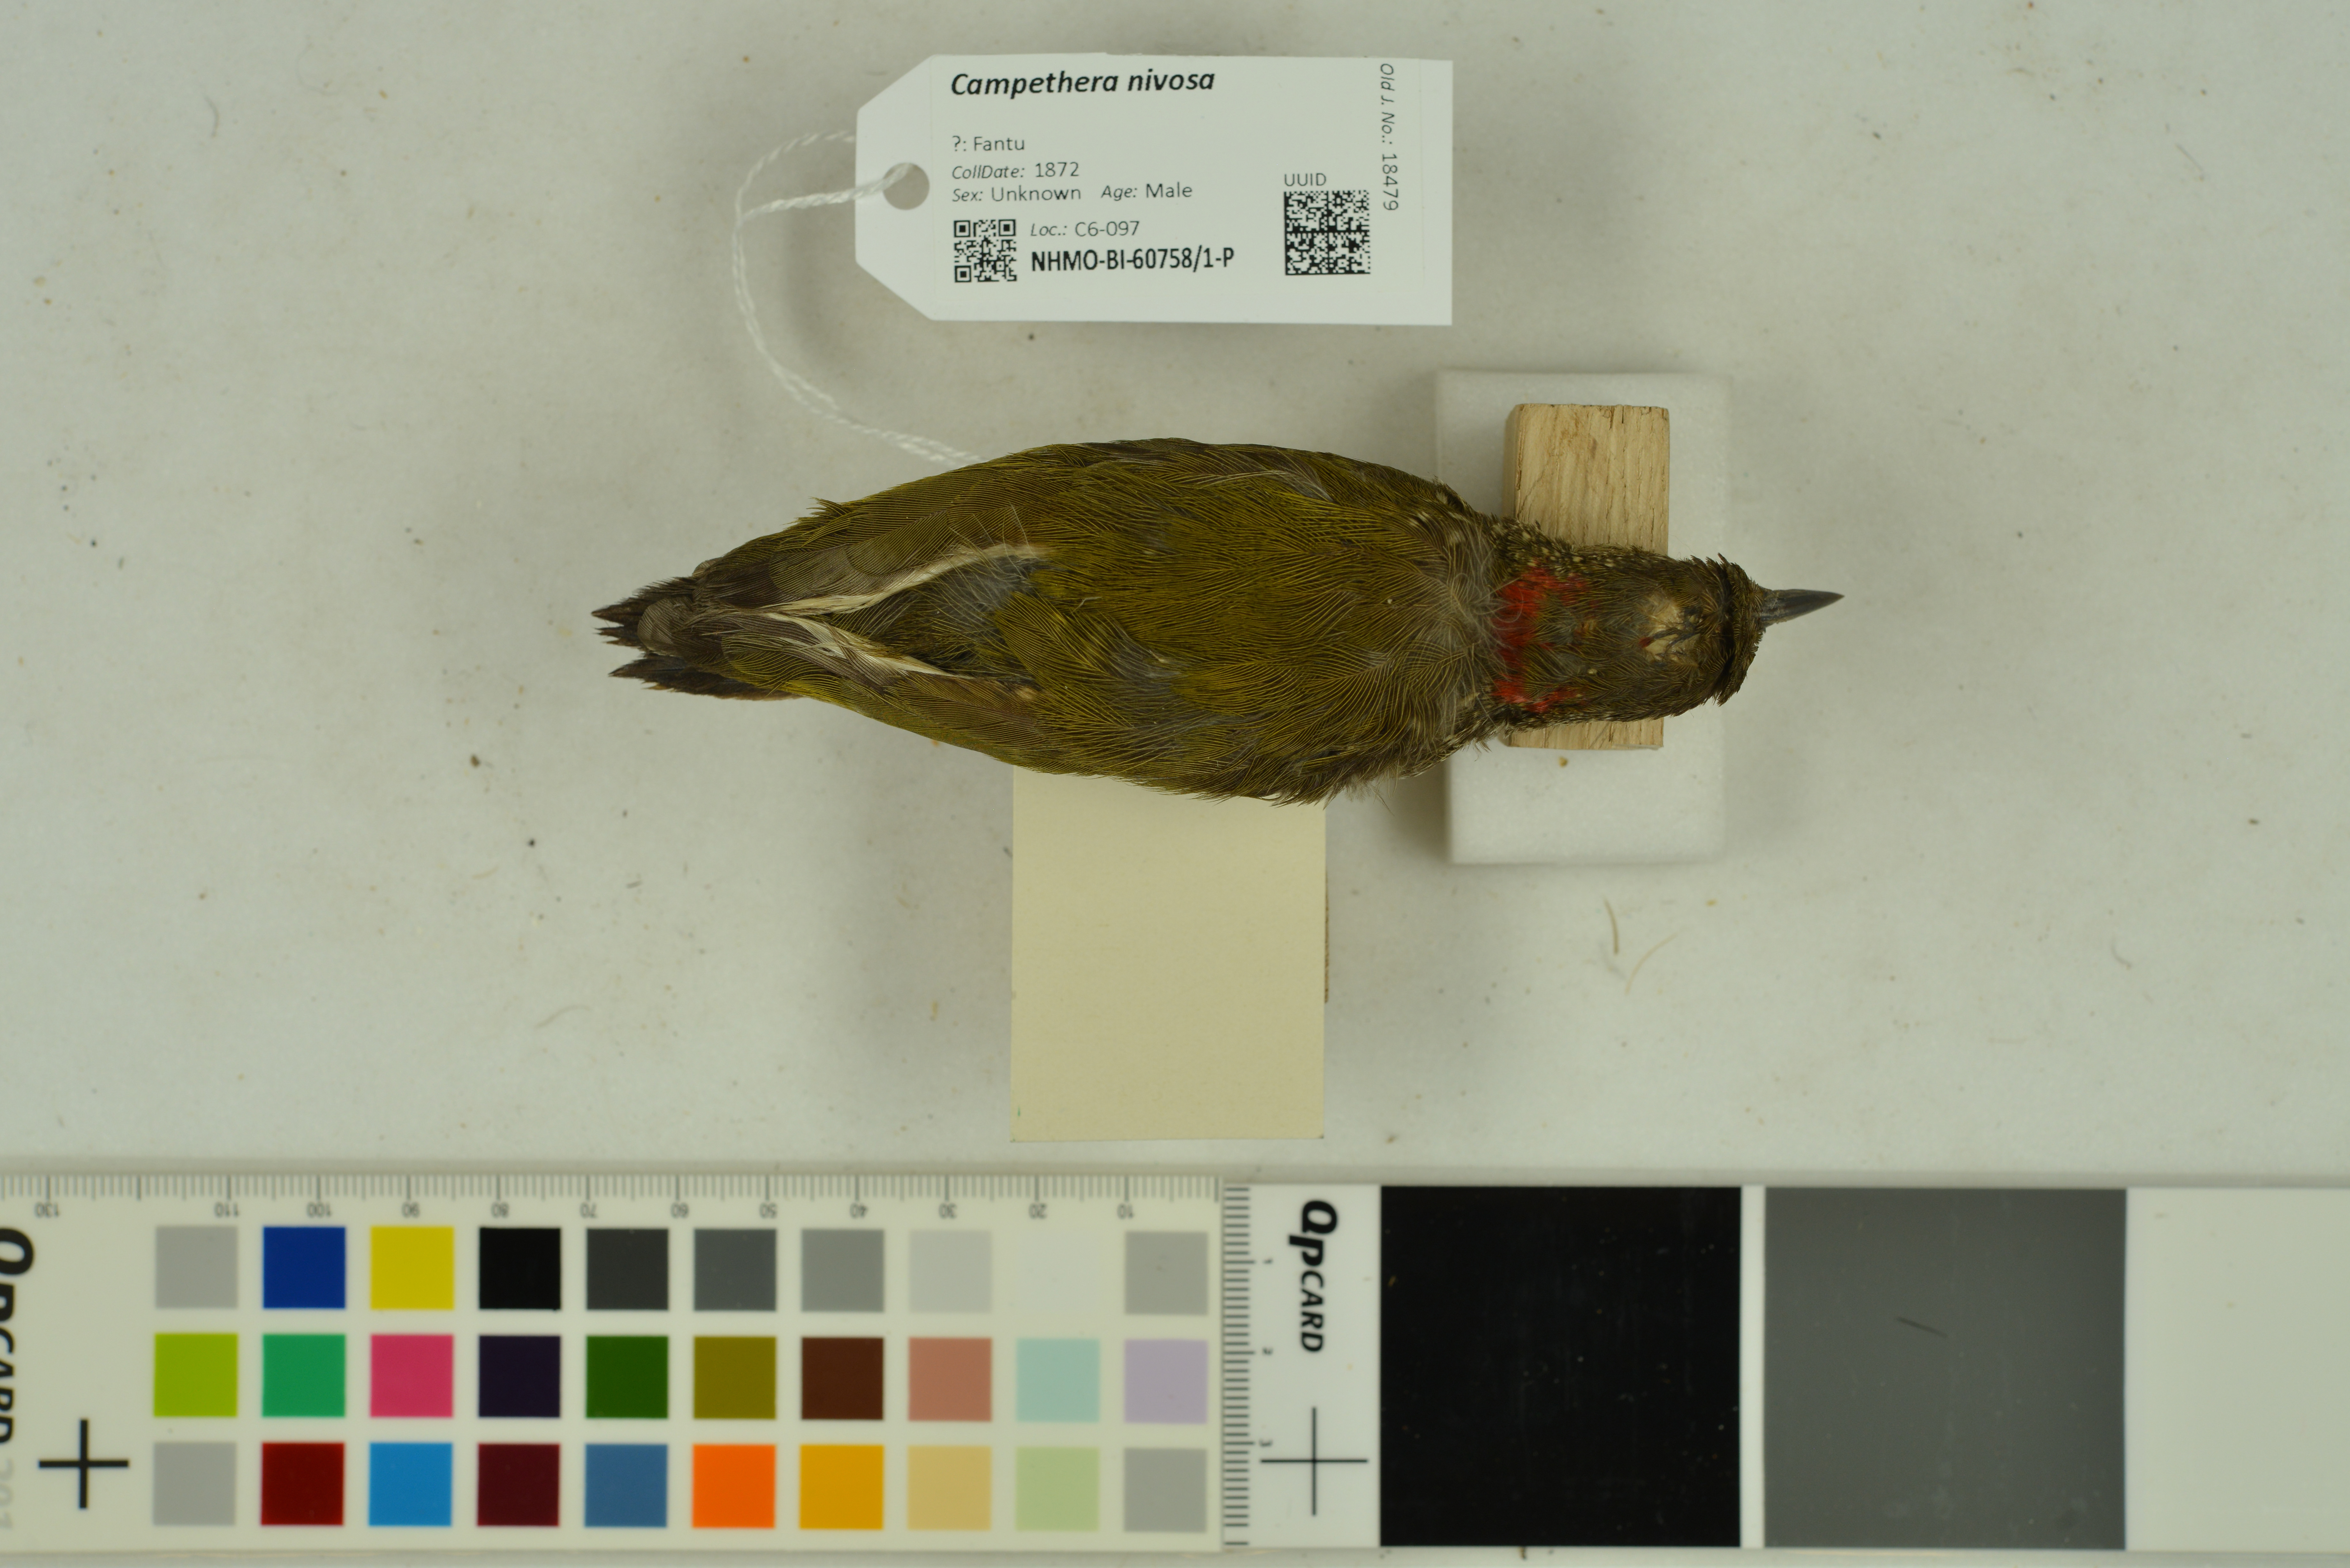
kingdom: Animalia
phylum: Chordata
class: Aves
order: Piciformes
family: Picidae
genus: Pardipicus
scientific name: Pardipicus nivosus
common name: Buff-spotted woodpecker
